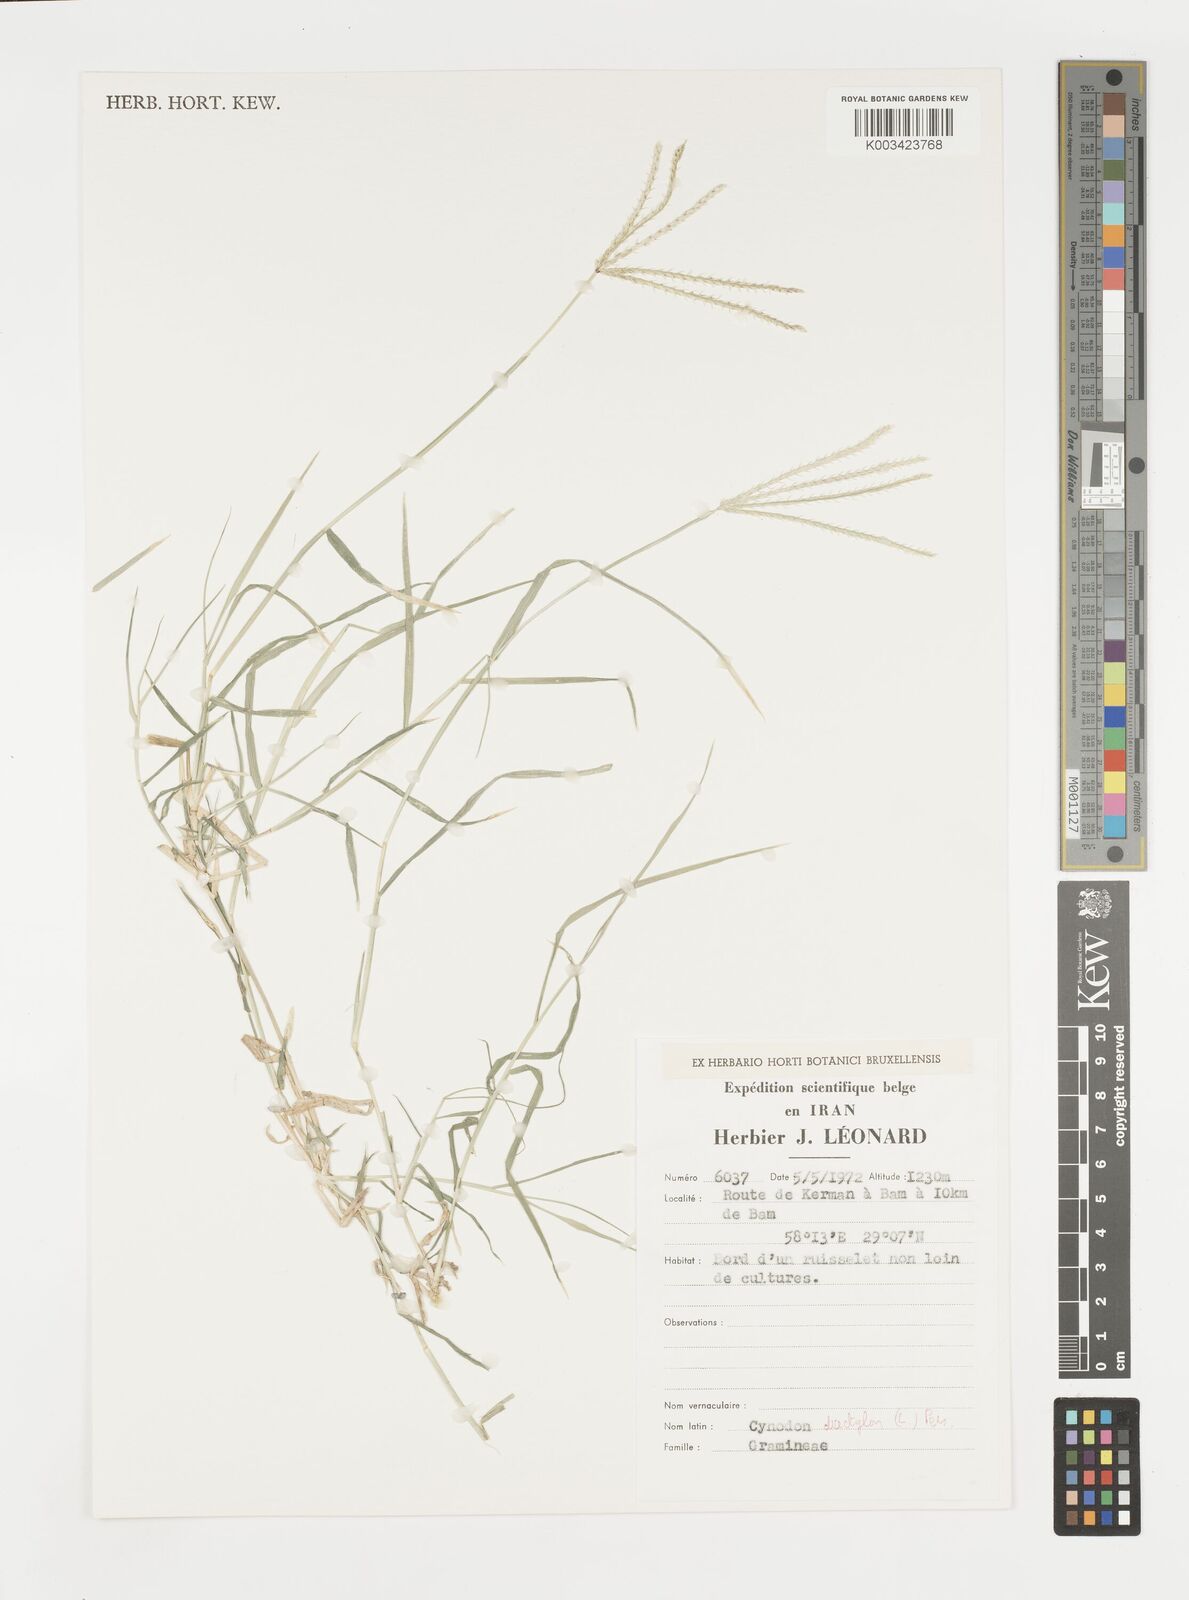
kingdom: Plantae
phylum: Tracheophyta
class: Liliopsida
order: Poales
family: Poaceae
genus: Cynodon
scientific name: Cynodon dactylon
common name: Bermuda grass
